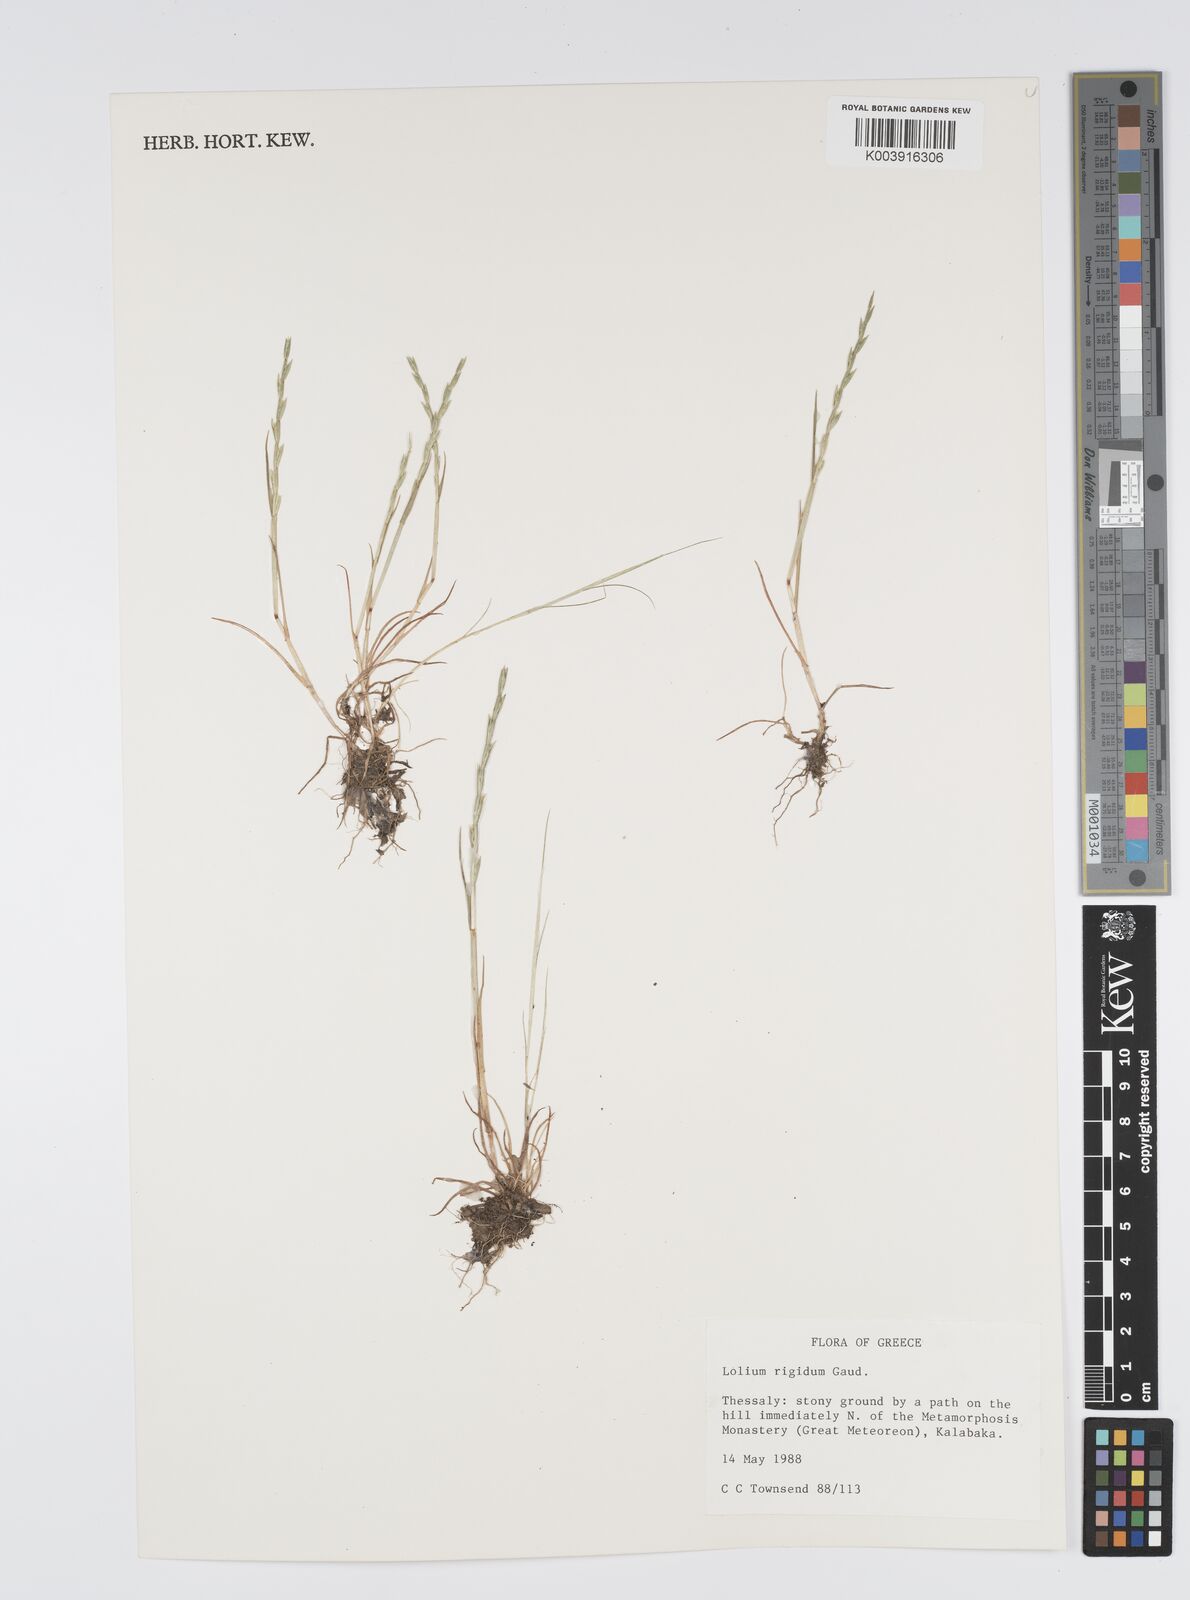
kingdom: Plantae
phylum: Tracheophyta
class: Liliopsida
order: Poales
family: Poaceae
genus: Lolium
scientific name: Lolium rigidum
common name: Wimmera ryegrass
